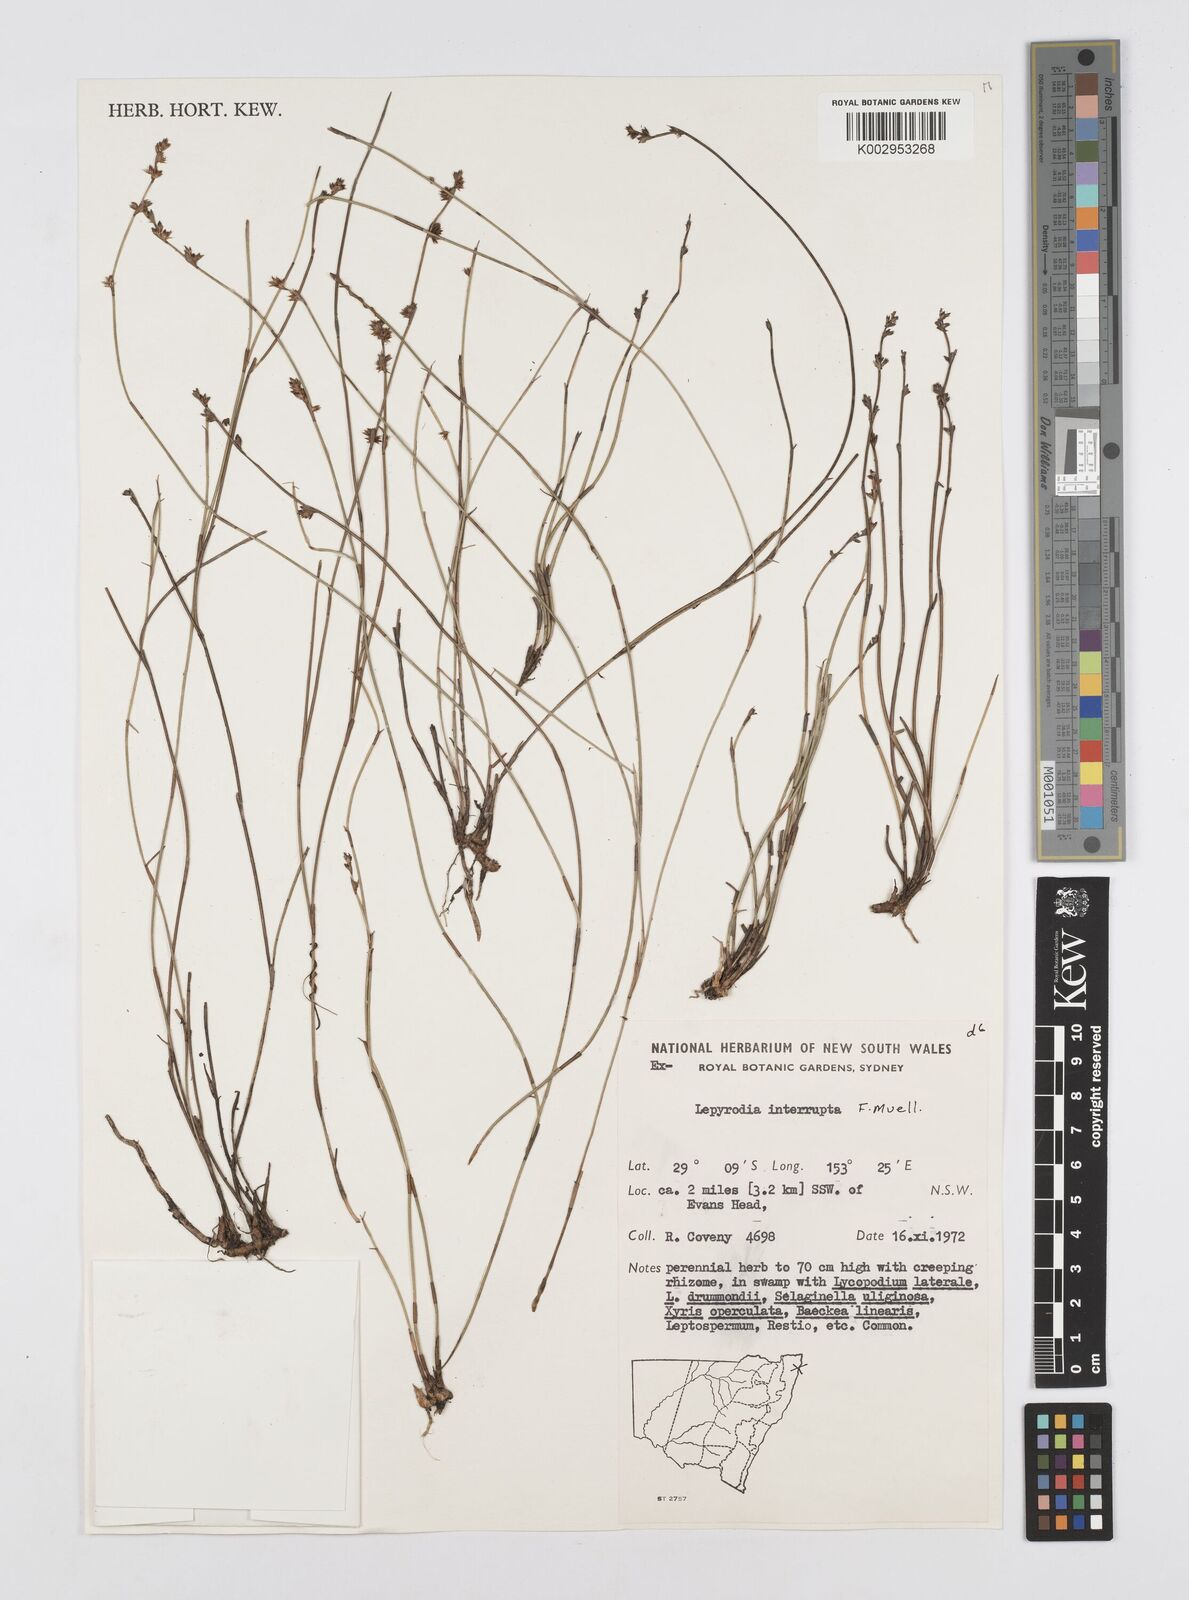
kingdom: Plantae
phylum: Tracheophyta
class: Liliopsida
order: Poales
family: Restionaceae
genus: Sporadanthus
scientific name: Sporadanthus interruptus
